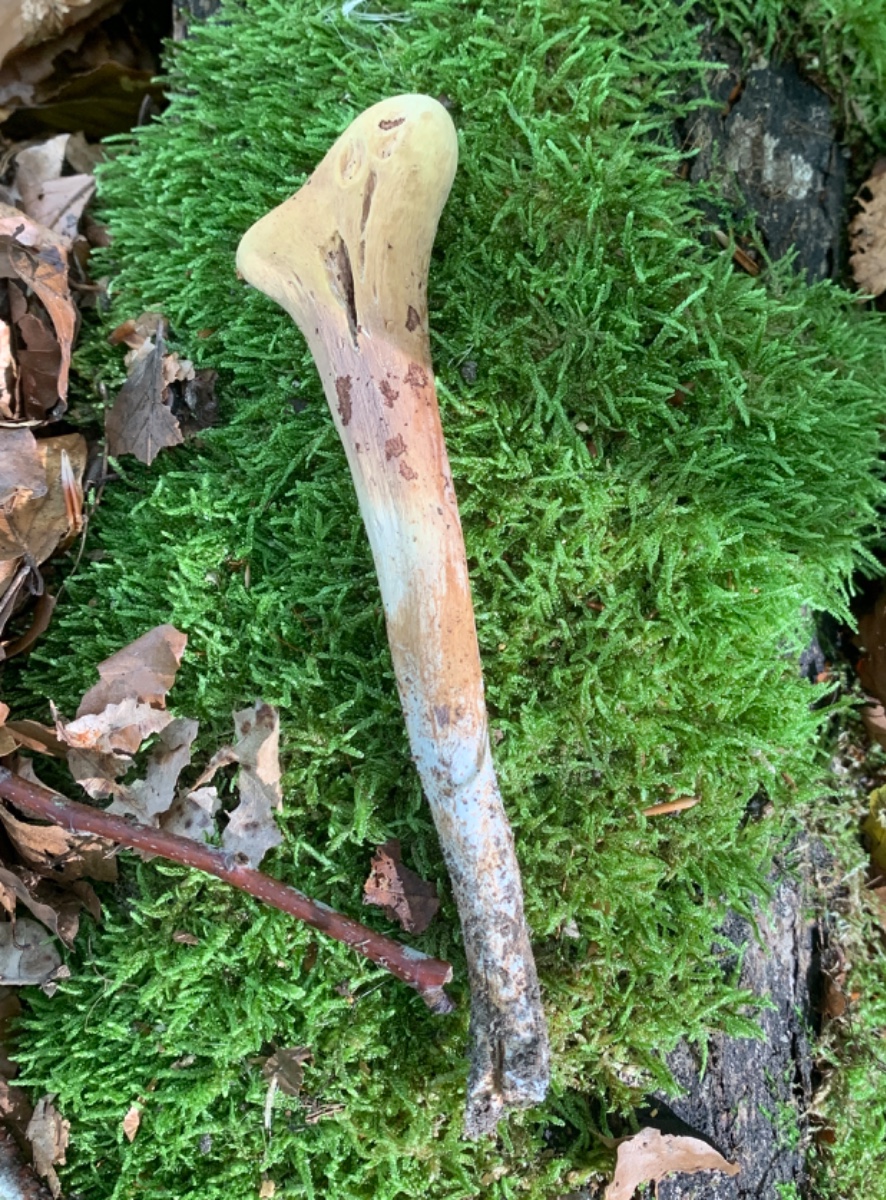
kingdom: Fungi
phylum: Basidiomycota
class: Agaricomycetes
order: Gomphales
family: Clavariadelphaceae
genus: Clavariadelphus
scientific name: Clavariadelphus pistillaris
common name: herkules-kæmpekølle
